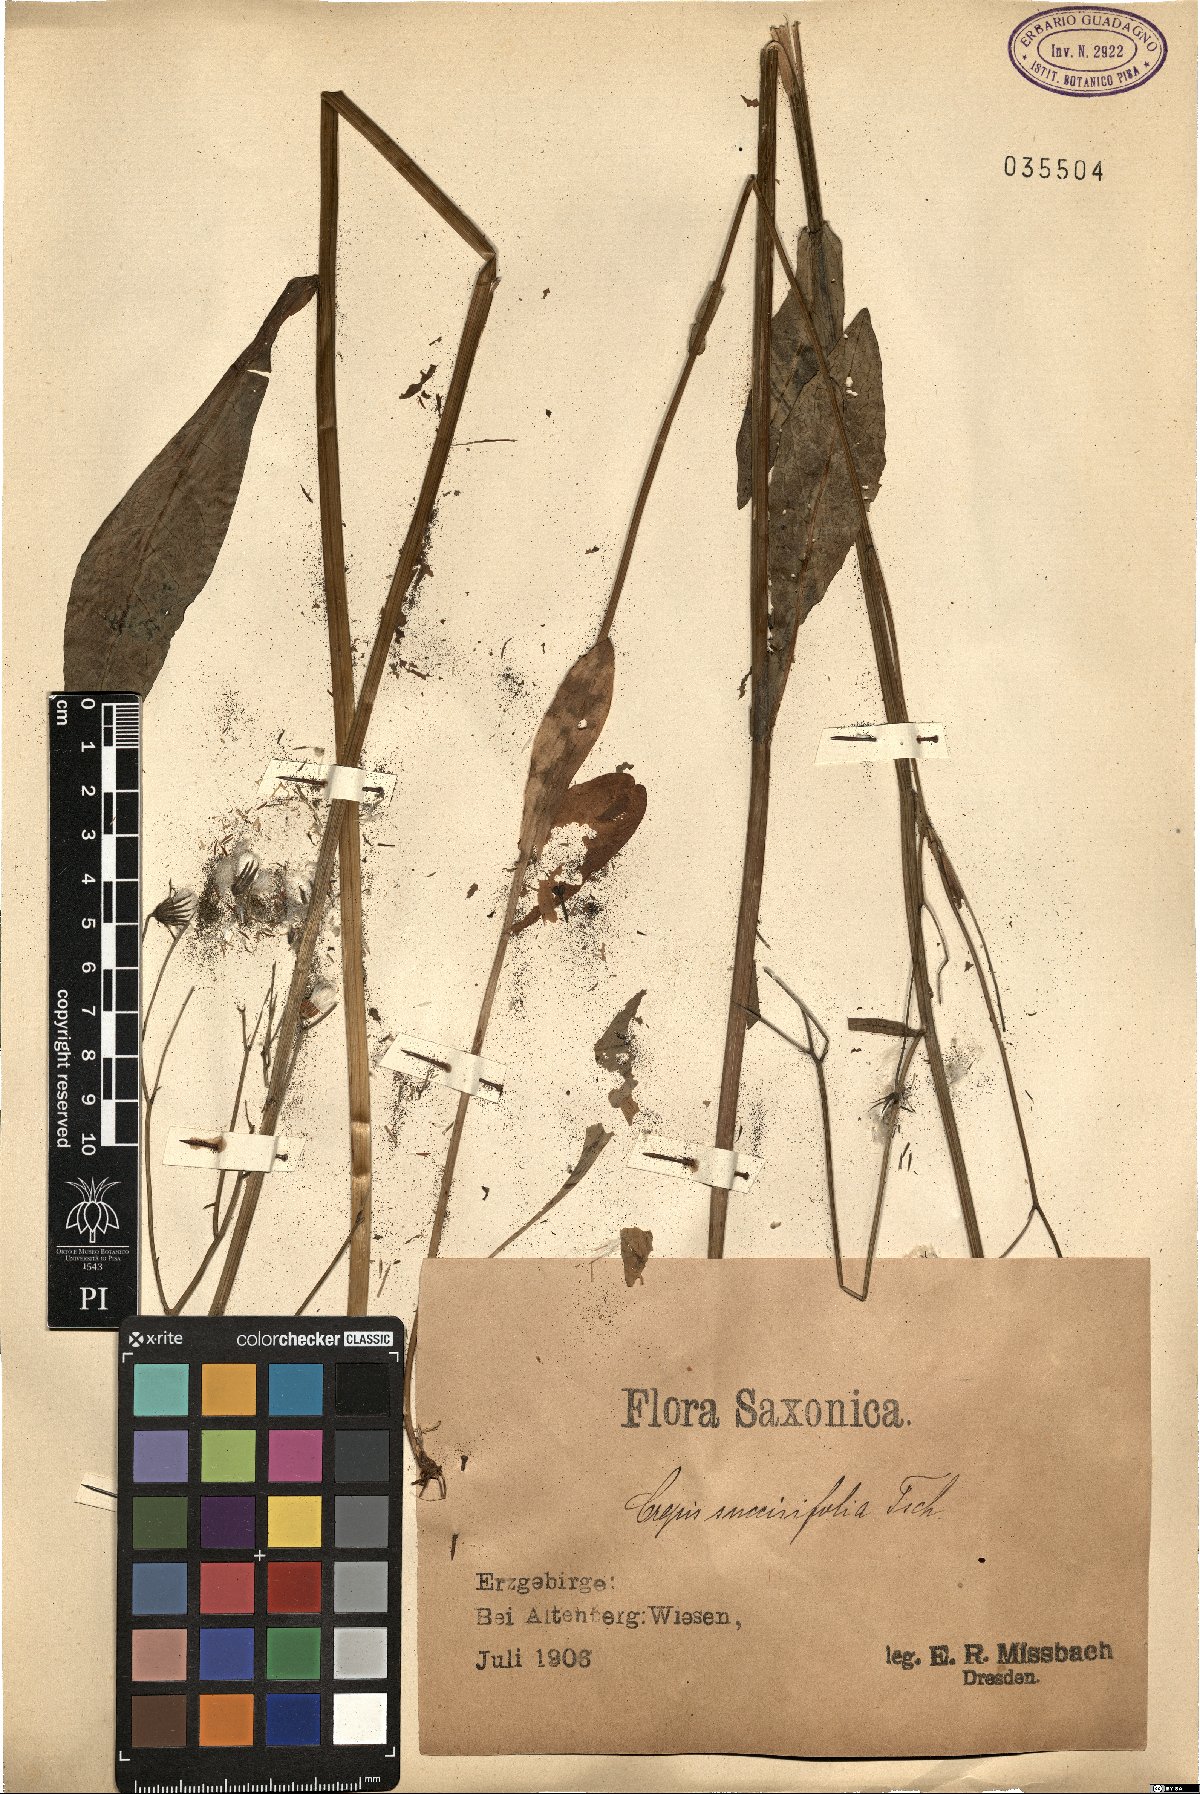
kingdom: Plantae
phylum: Tracheophyta
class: Magnoliopsida
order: Asterales
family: Asteraceae
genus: Crepis
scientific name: Crepis mollis
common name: Northern hawk's-beard
